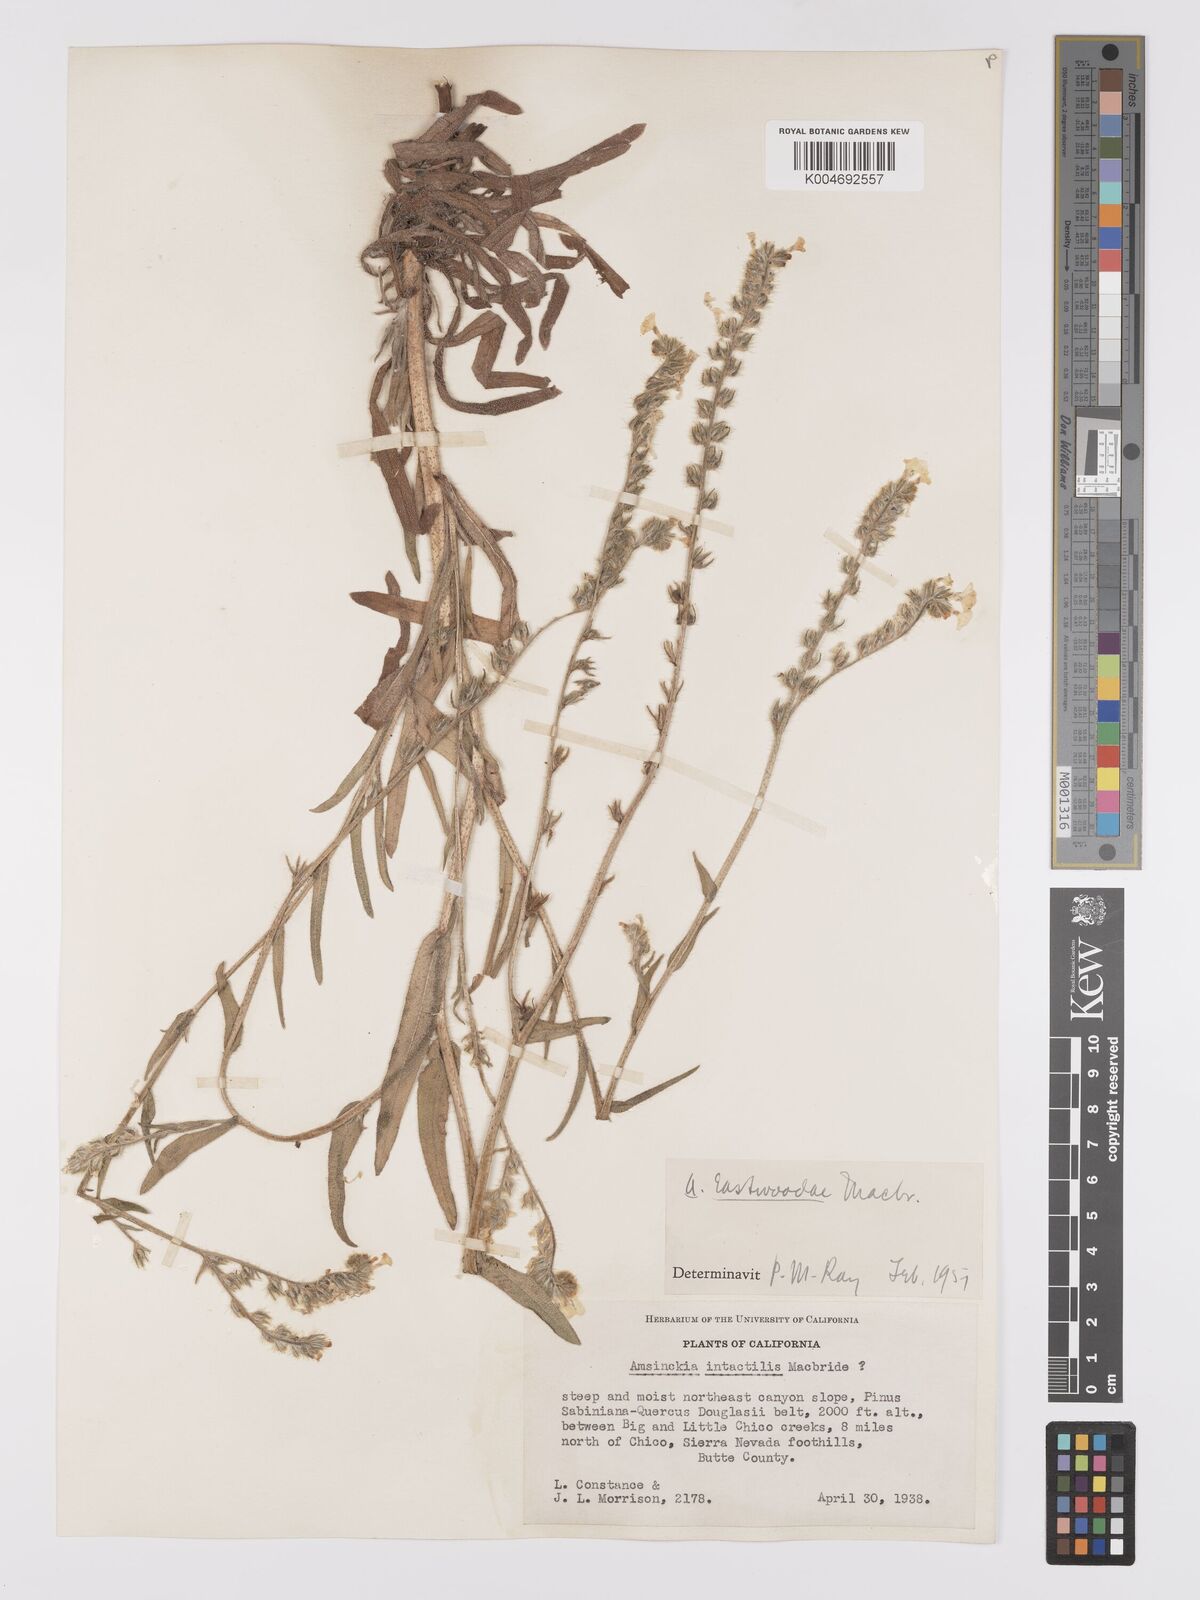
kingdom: Plantae
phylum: Tracheophyta
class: Magnoliopsida
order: Boraginales
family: Boraginaceae
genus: Amsinckia
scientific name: Amsinckia eastwoodiae
